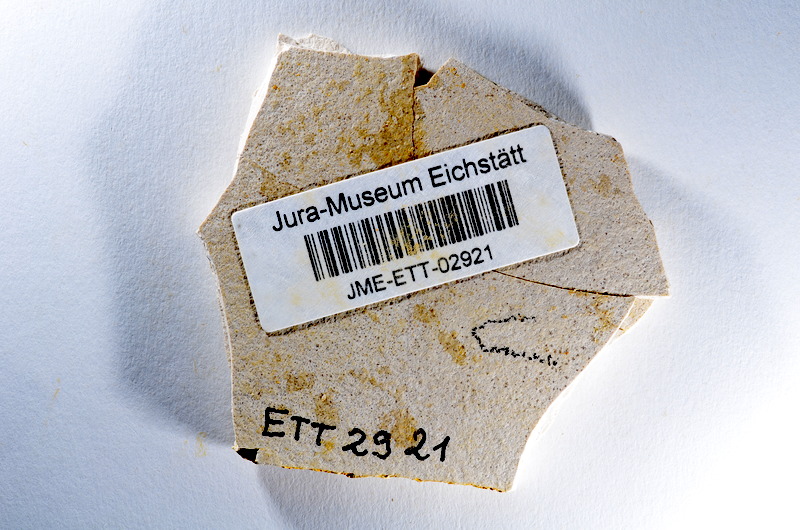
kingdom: Animalia
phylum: Chordata
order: Salmoniformes
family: Orthogonikleithridae
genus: Orthogonikleithrus
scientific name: Orthogonikleithrus hoelli
